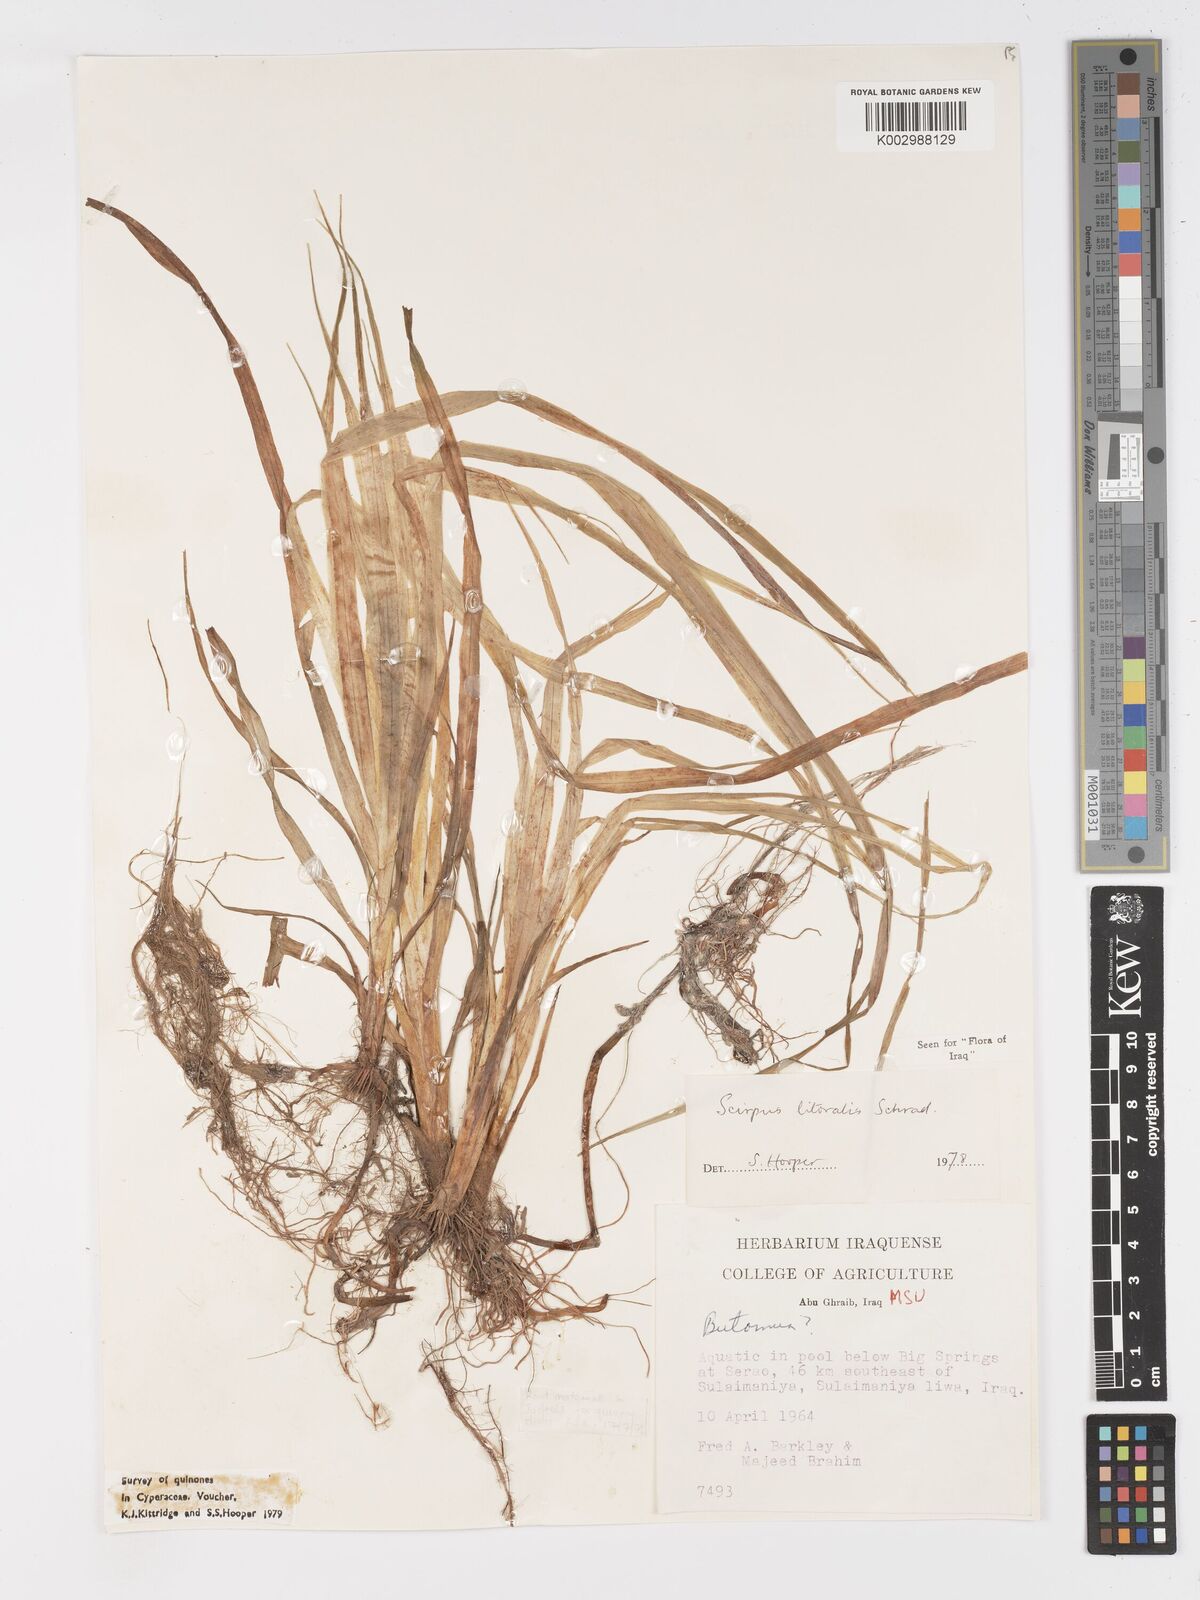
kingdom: Plantae
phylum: Tracheophyta
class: Liliopsida
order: Poales
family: Cyperaceae
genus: Schoenoplectus
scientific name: Schoenoplectus litoralis
